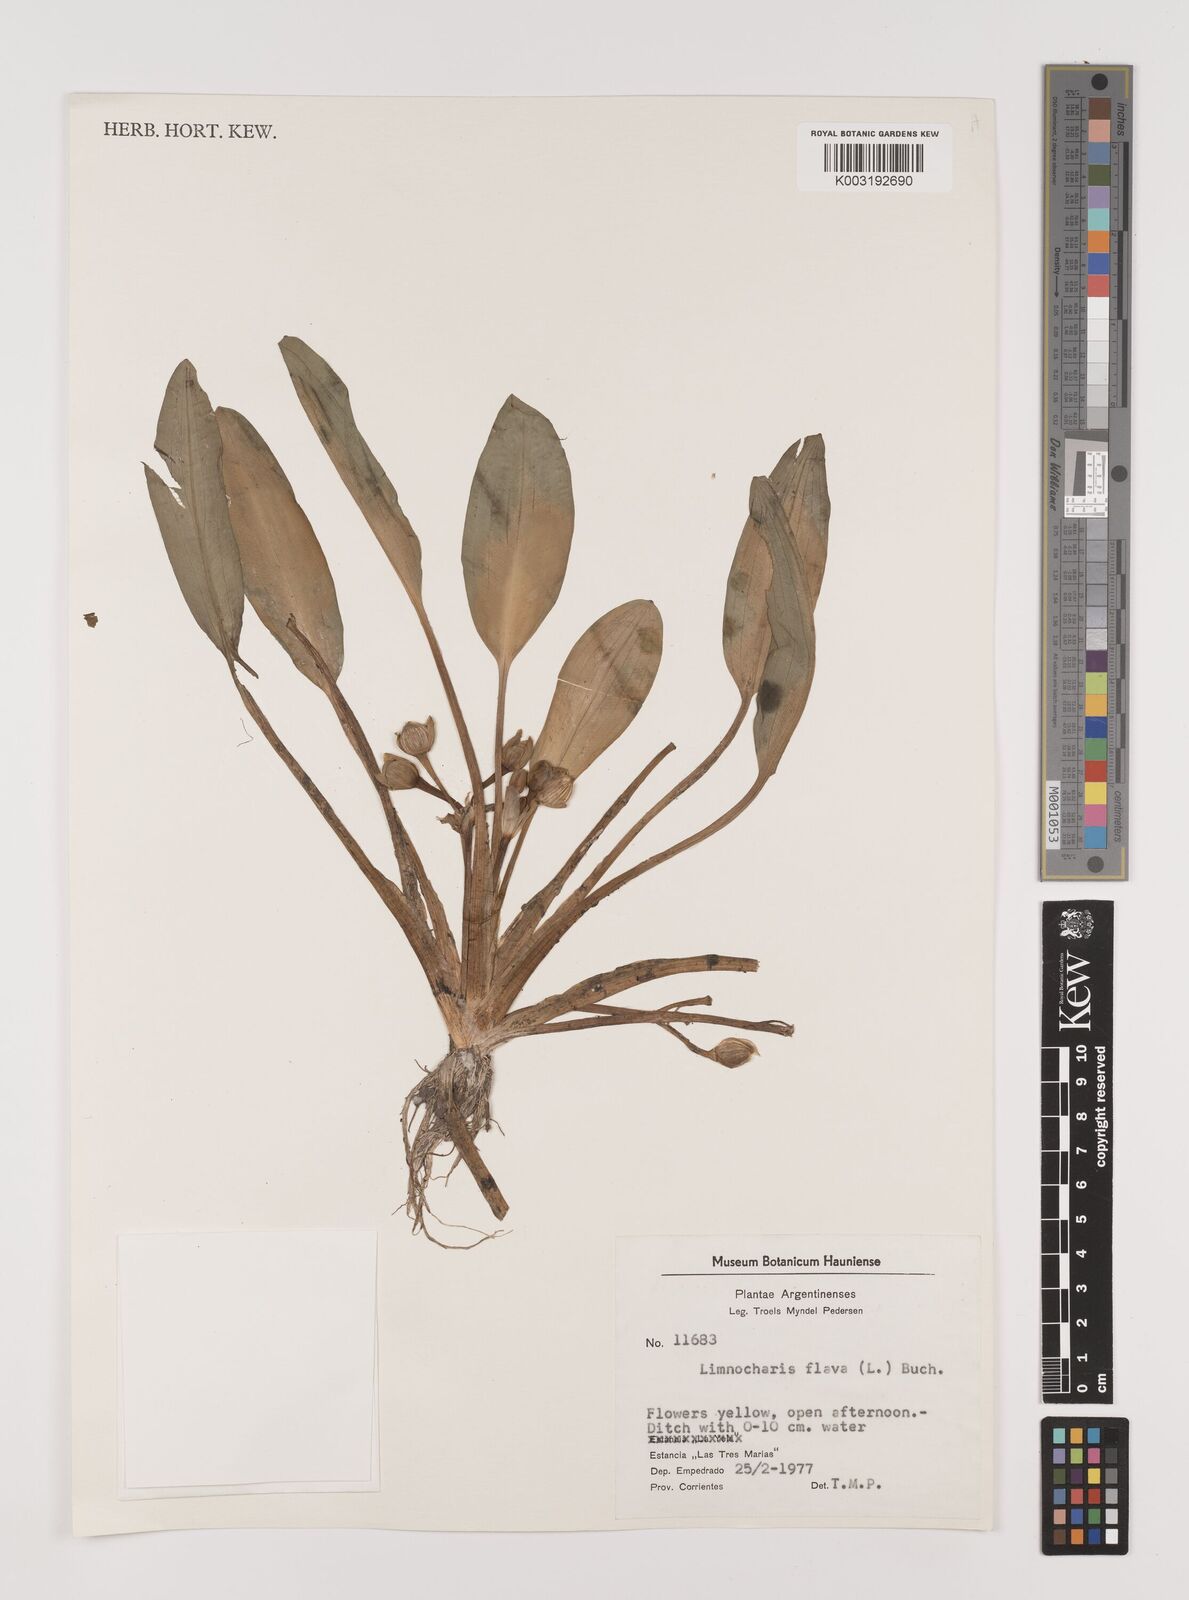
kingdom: Plantae
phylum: Tracheophyta
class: Liliopsida
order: Alismatales
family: Alismataceae
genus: Limnocharis
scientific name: Limnocharis flava
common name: Sawah-flower-rush
